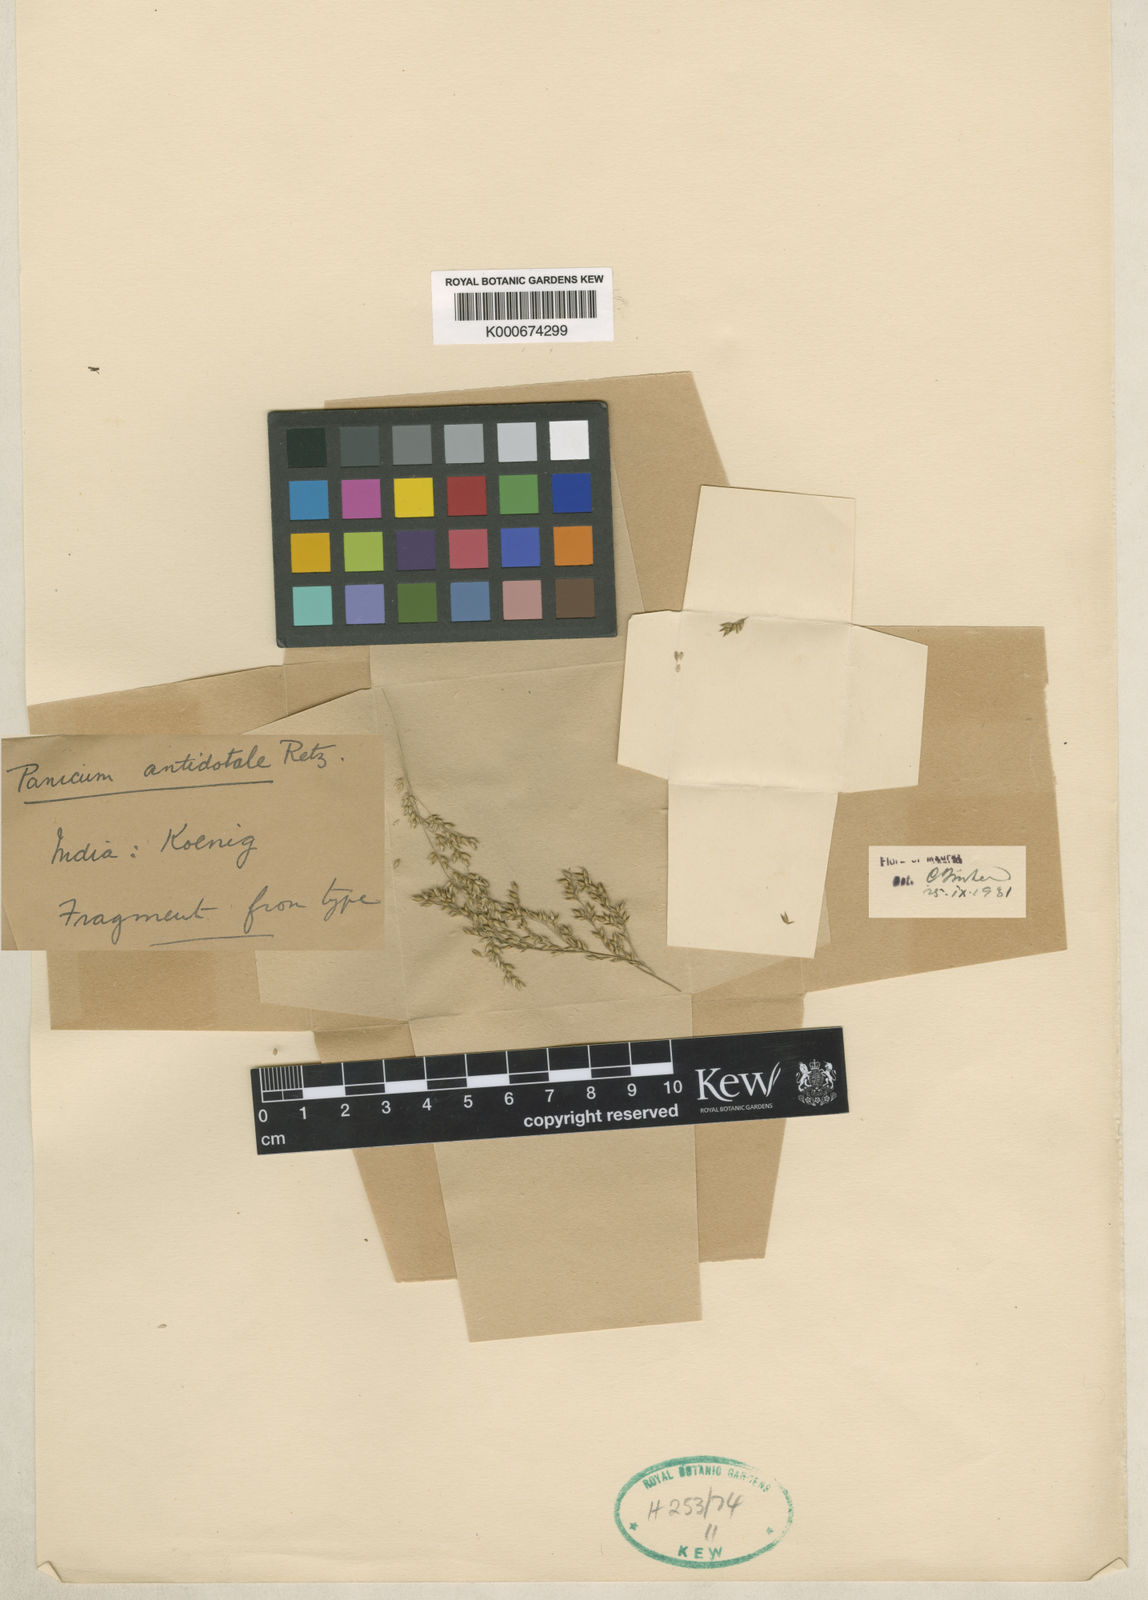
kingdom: Plantae
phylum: Tracheophyta
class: Liliopsida
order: Poales
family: Poaceae
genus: Panicum
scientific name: Panicum antidotale
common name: Blue panicum
